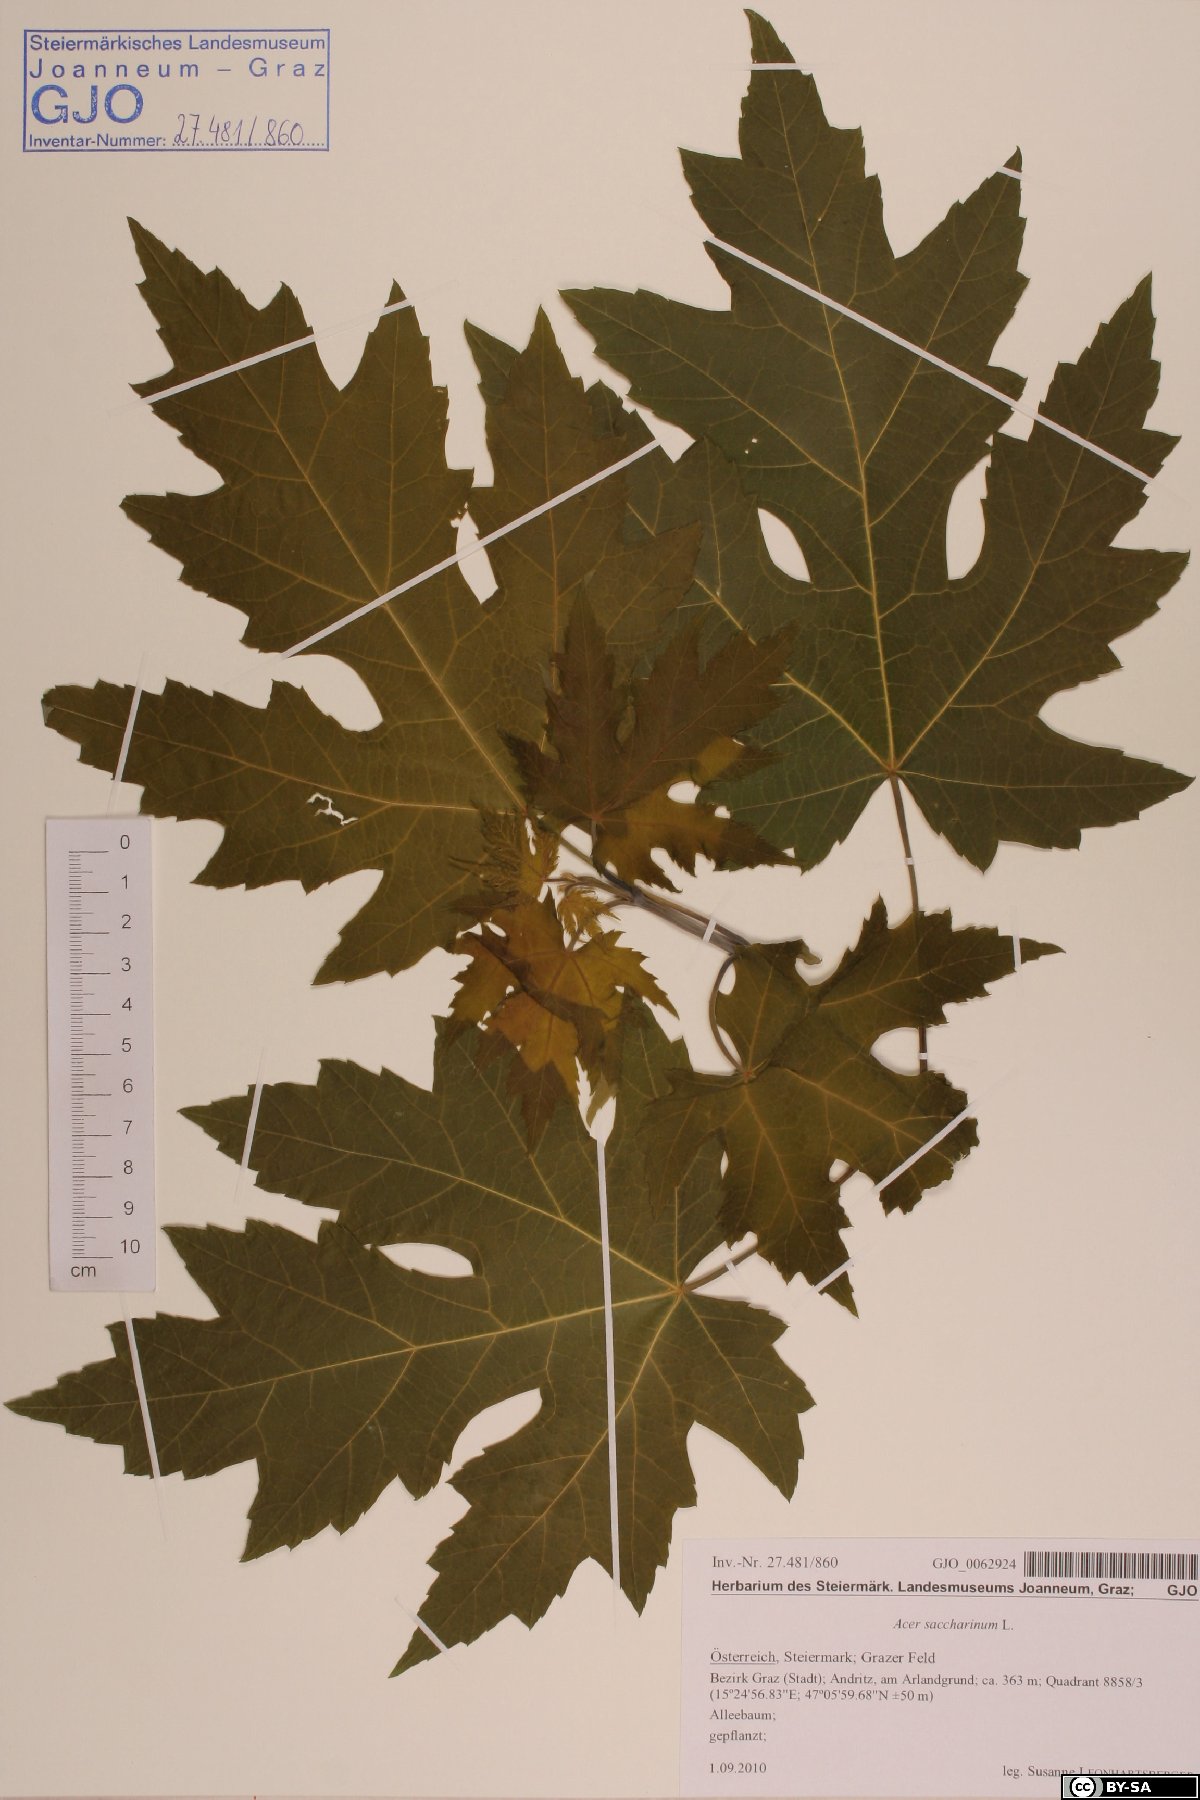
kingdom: Plantae
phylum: Tracheophyta
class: Magnoliopsida
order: Sapindales
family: Sapindaceae
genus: Acer
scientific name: Acer saccharinum
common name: Silver maple
